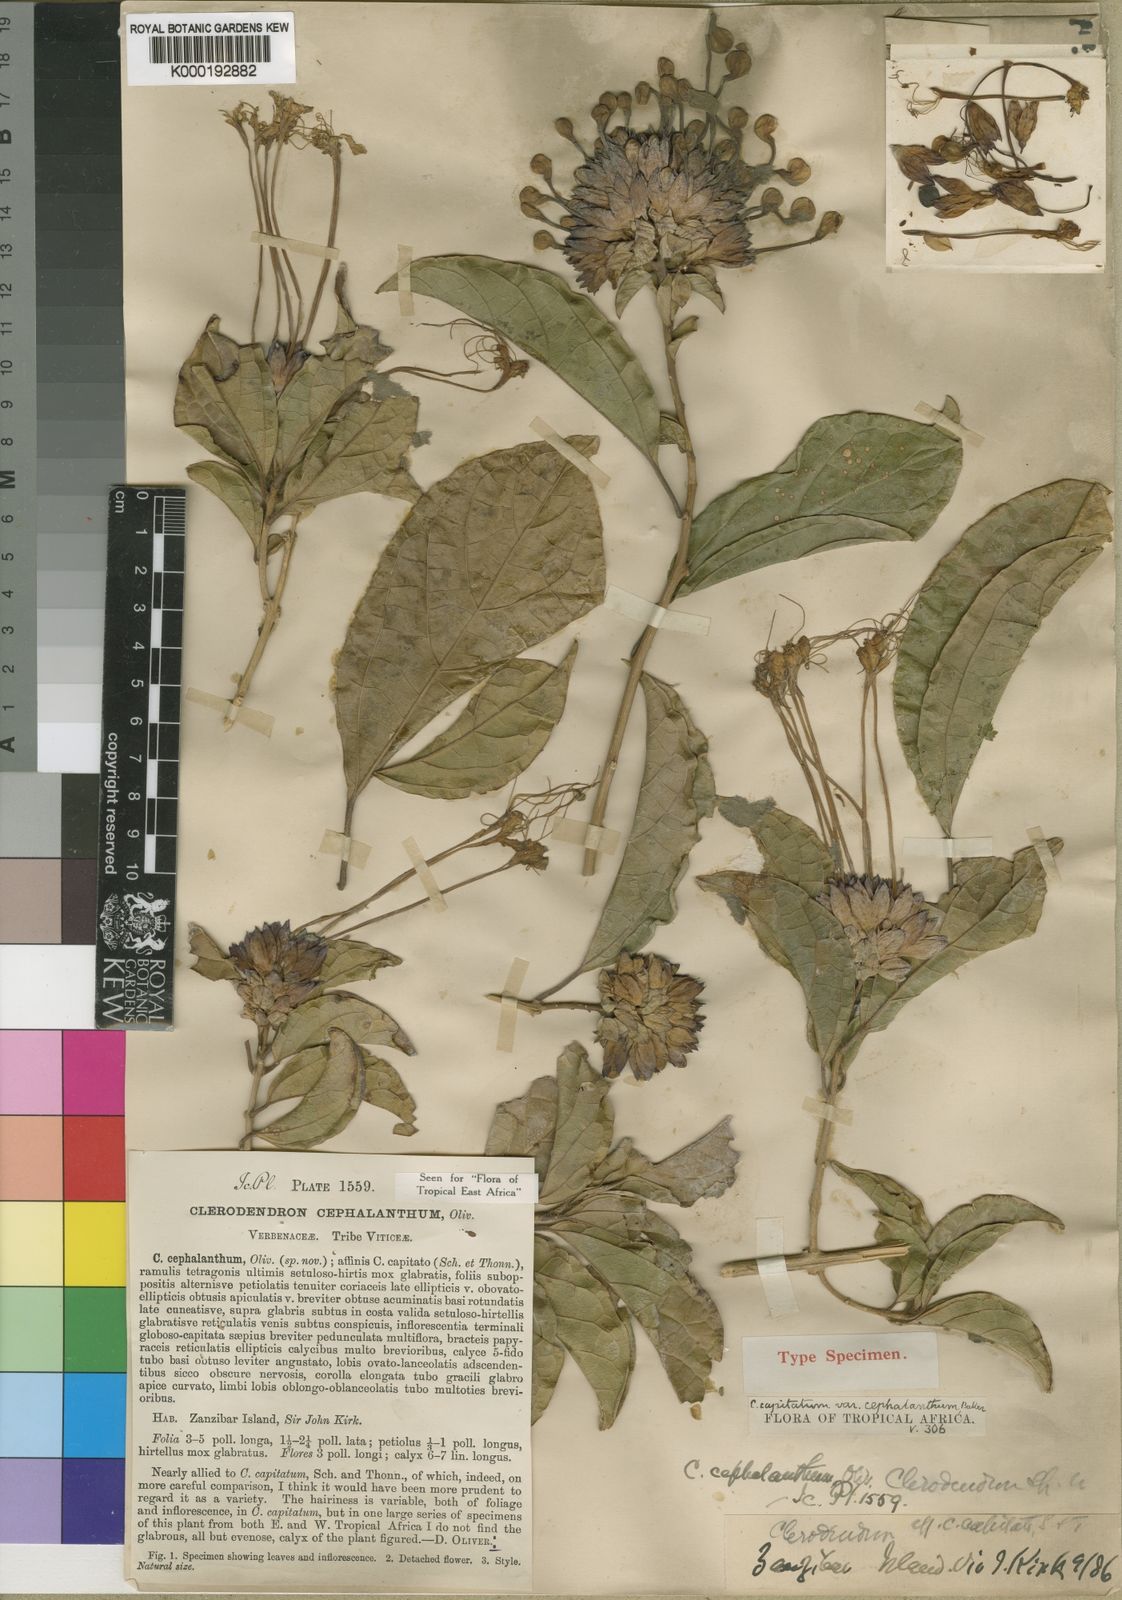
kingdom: Plantae
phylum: Tracheophyta
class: Magnoliopsida
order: Lamiales
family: Lamiaceae
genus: Clerodendrum
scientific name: Clerodendrum cephalanthum
